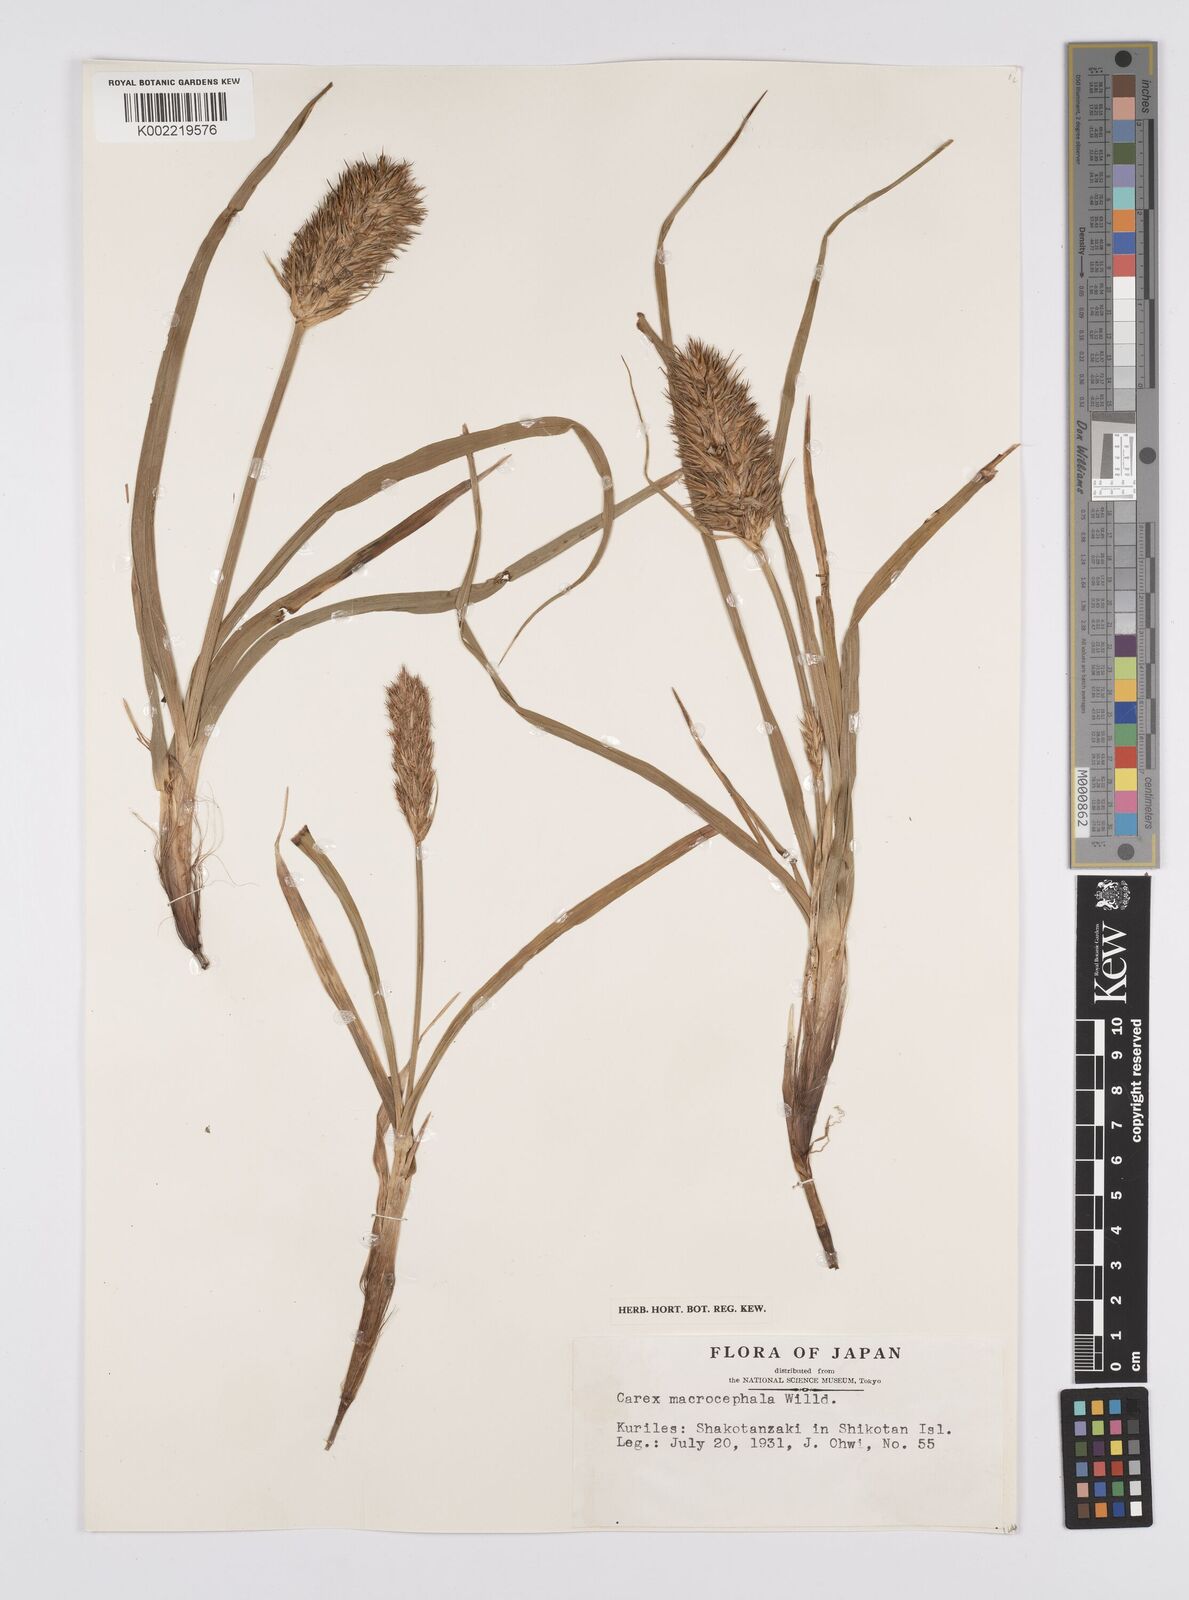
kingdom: Plantae
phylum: Tracheophyta
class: Liliopsida
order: Poales
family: Cyperaceae
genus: Carex
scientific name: Carex macrocephala
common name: Large-head sedge
